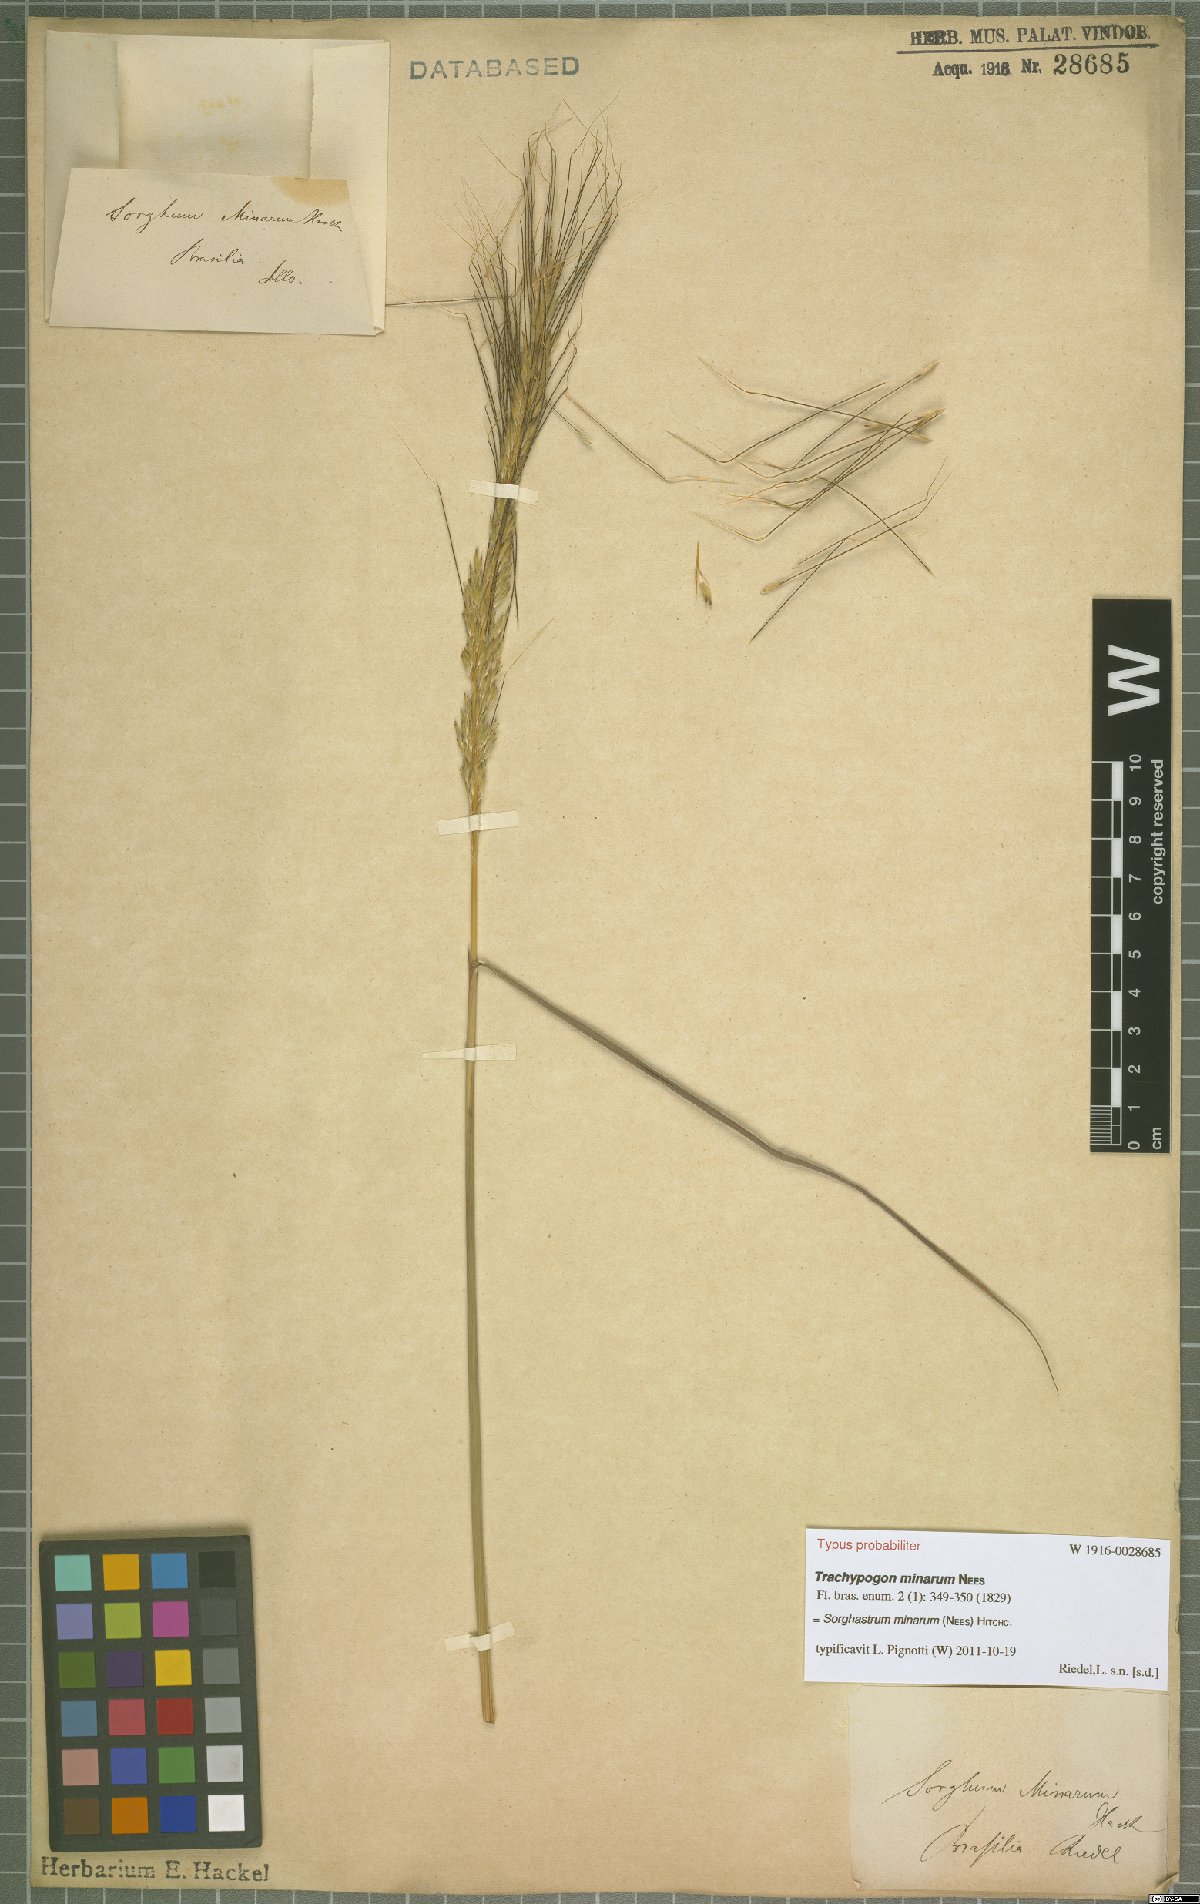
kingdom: Plantae
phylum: Tracheophyta
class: Liliopsida
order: Poales
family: Poaceae
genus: Sorghastrum
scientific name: Sorghastrum minarum
